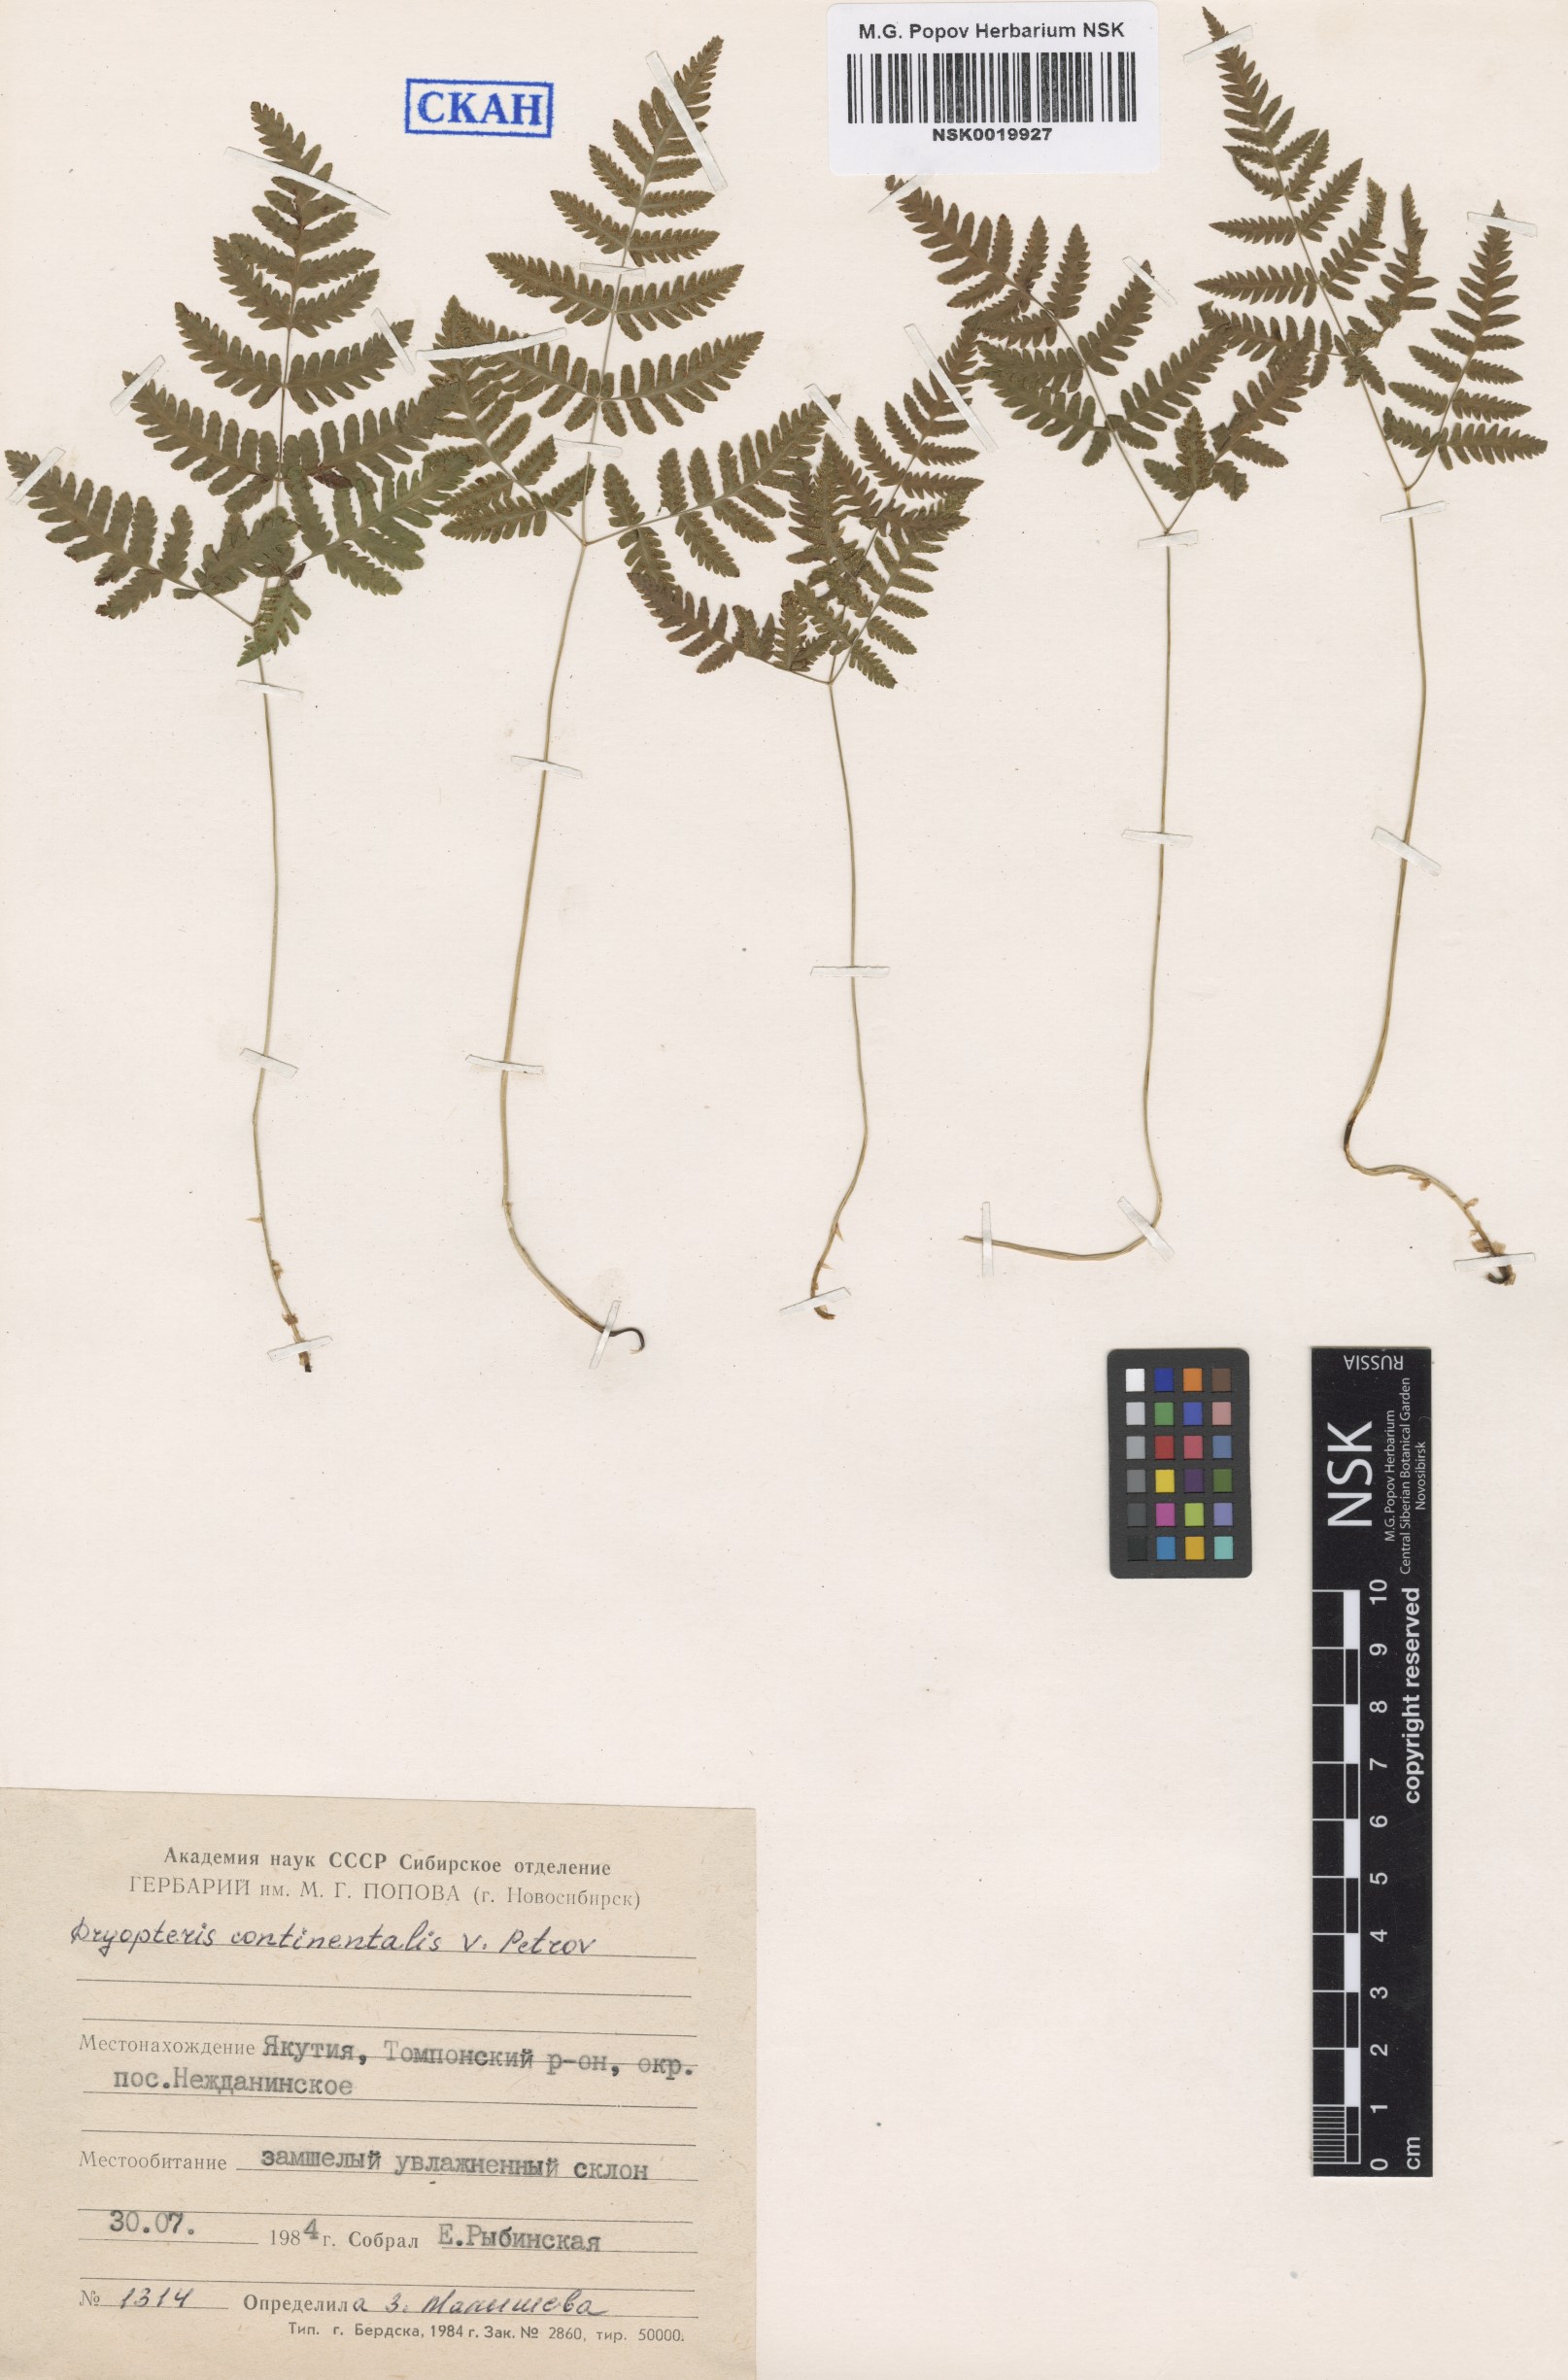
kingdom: Plantae
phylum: Tracheophyta
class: Polypodiopsida
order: Polypodiales
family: Cystopteridaceae
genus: Gymnocarpium
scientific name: Gymnocarpium continentale
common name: Asian oak fern
